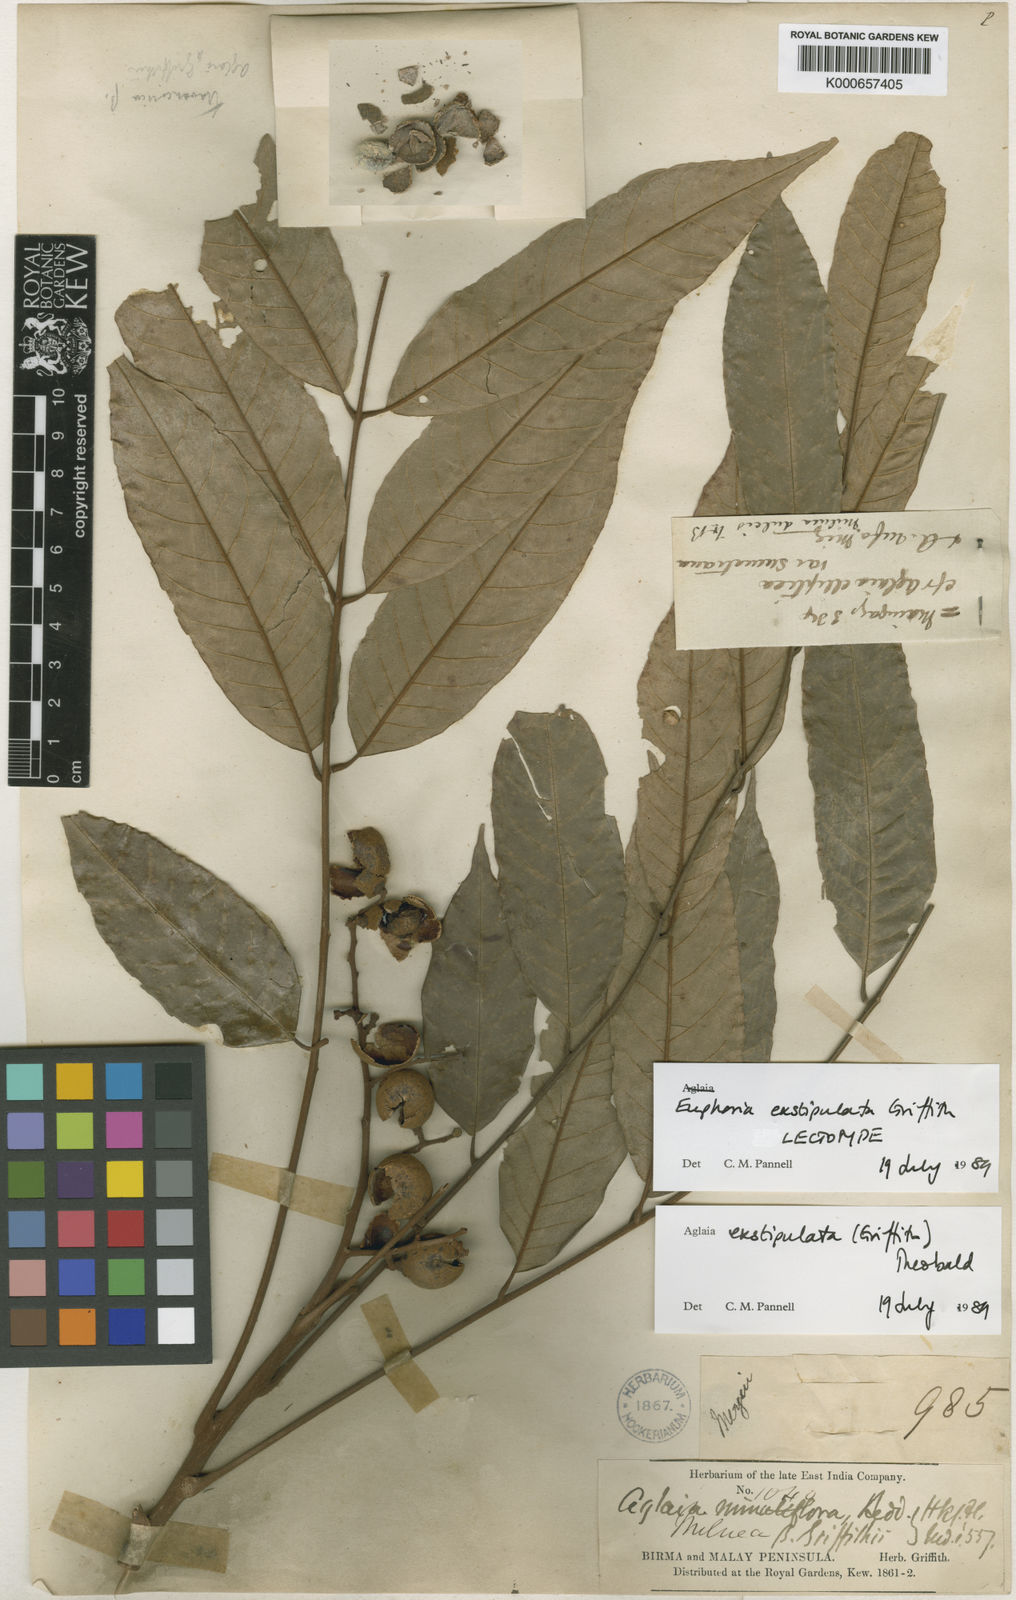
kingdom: Plantae
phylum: Tracheophyta
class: Magnoliopsida
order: Sapindales
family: Meliaceae
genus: Aglaia
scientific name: Aglaia exstipulata
